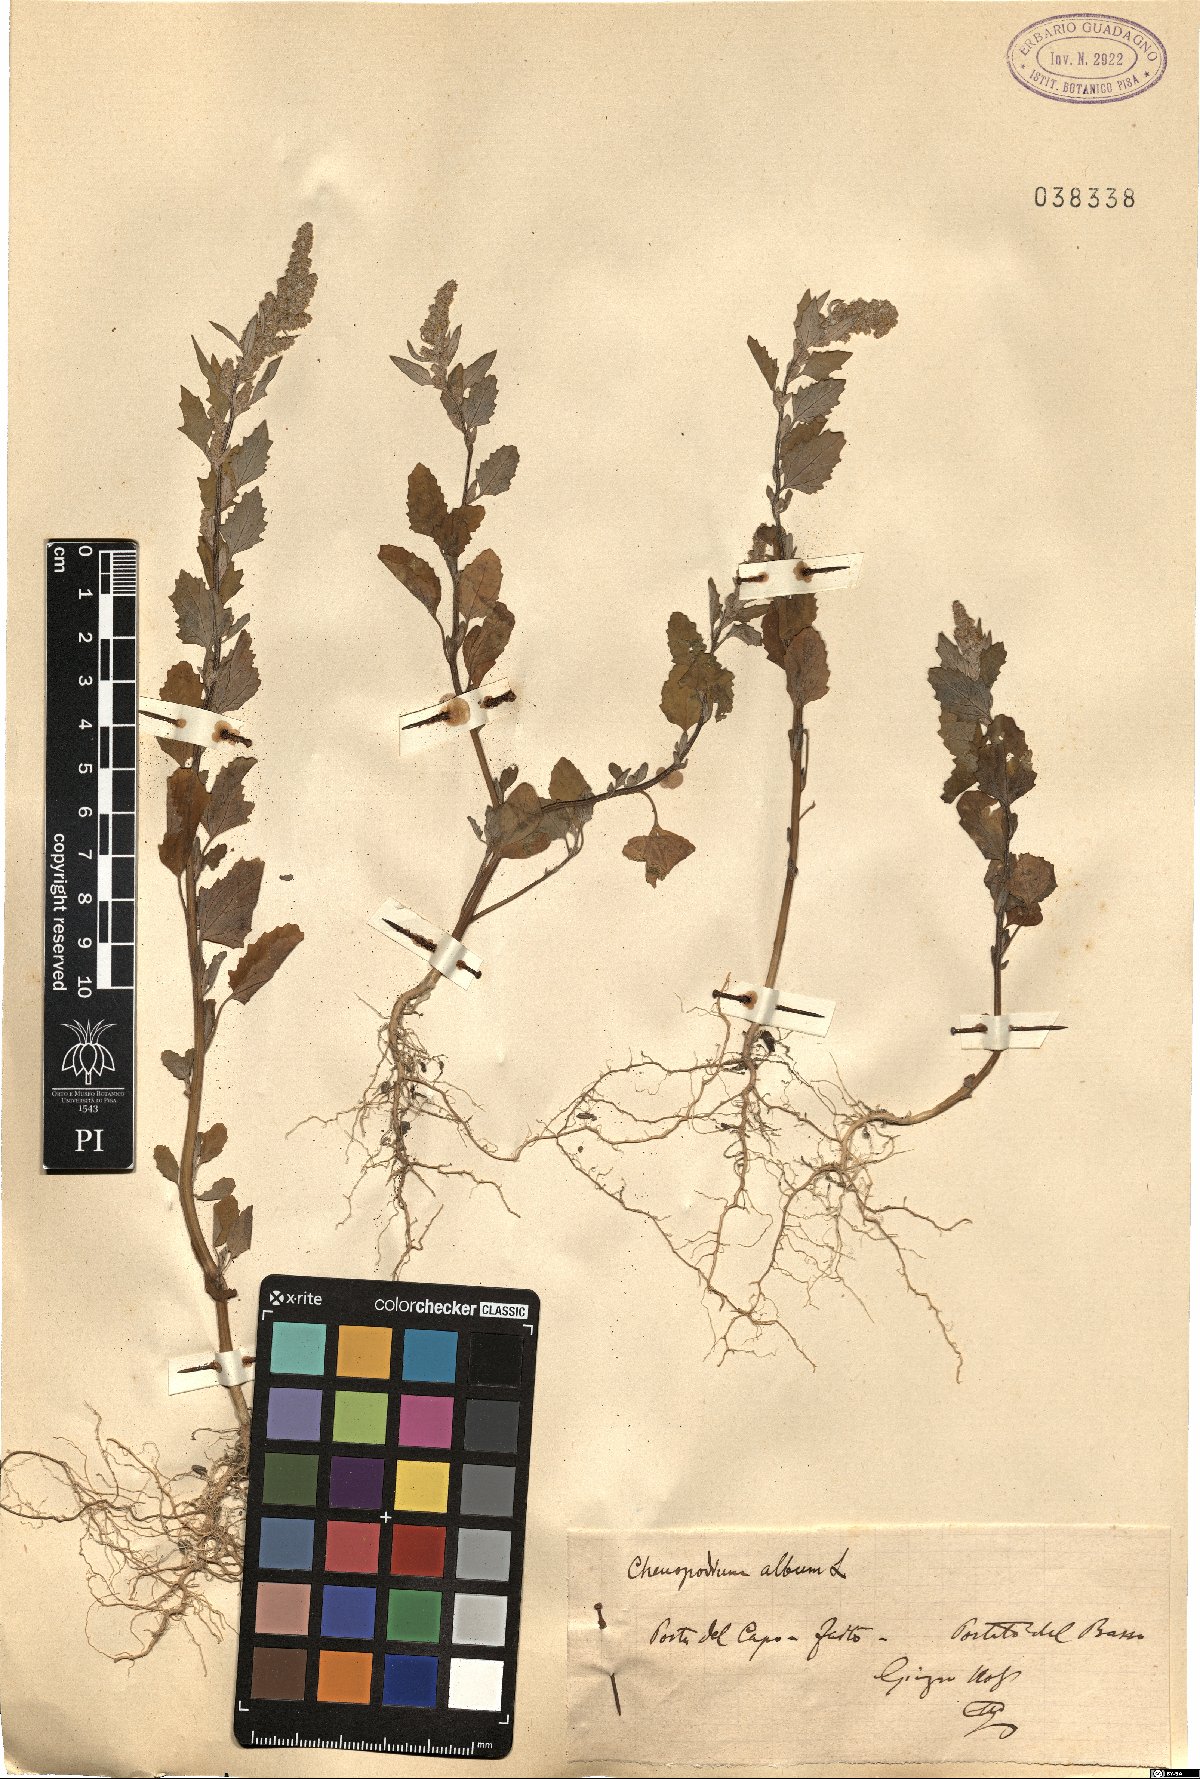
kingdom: Plantae
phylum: Tracheophyta
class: Magnoliopsida
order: Caryophyllales
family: Amaranthaceae
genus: Chenopodium
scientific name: Chenopodium album
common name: Fat-hen
